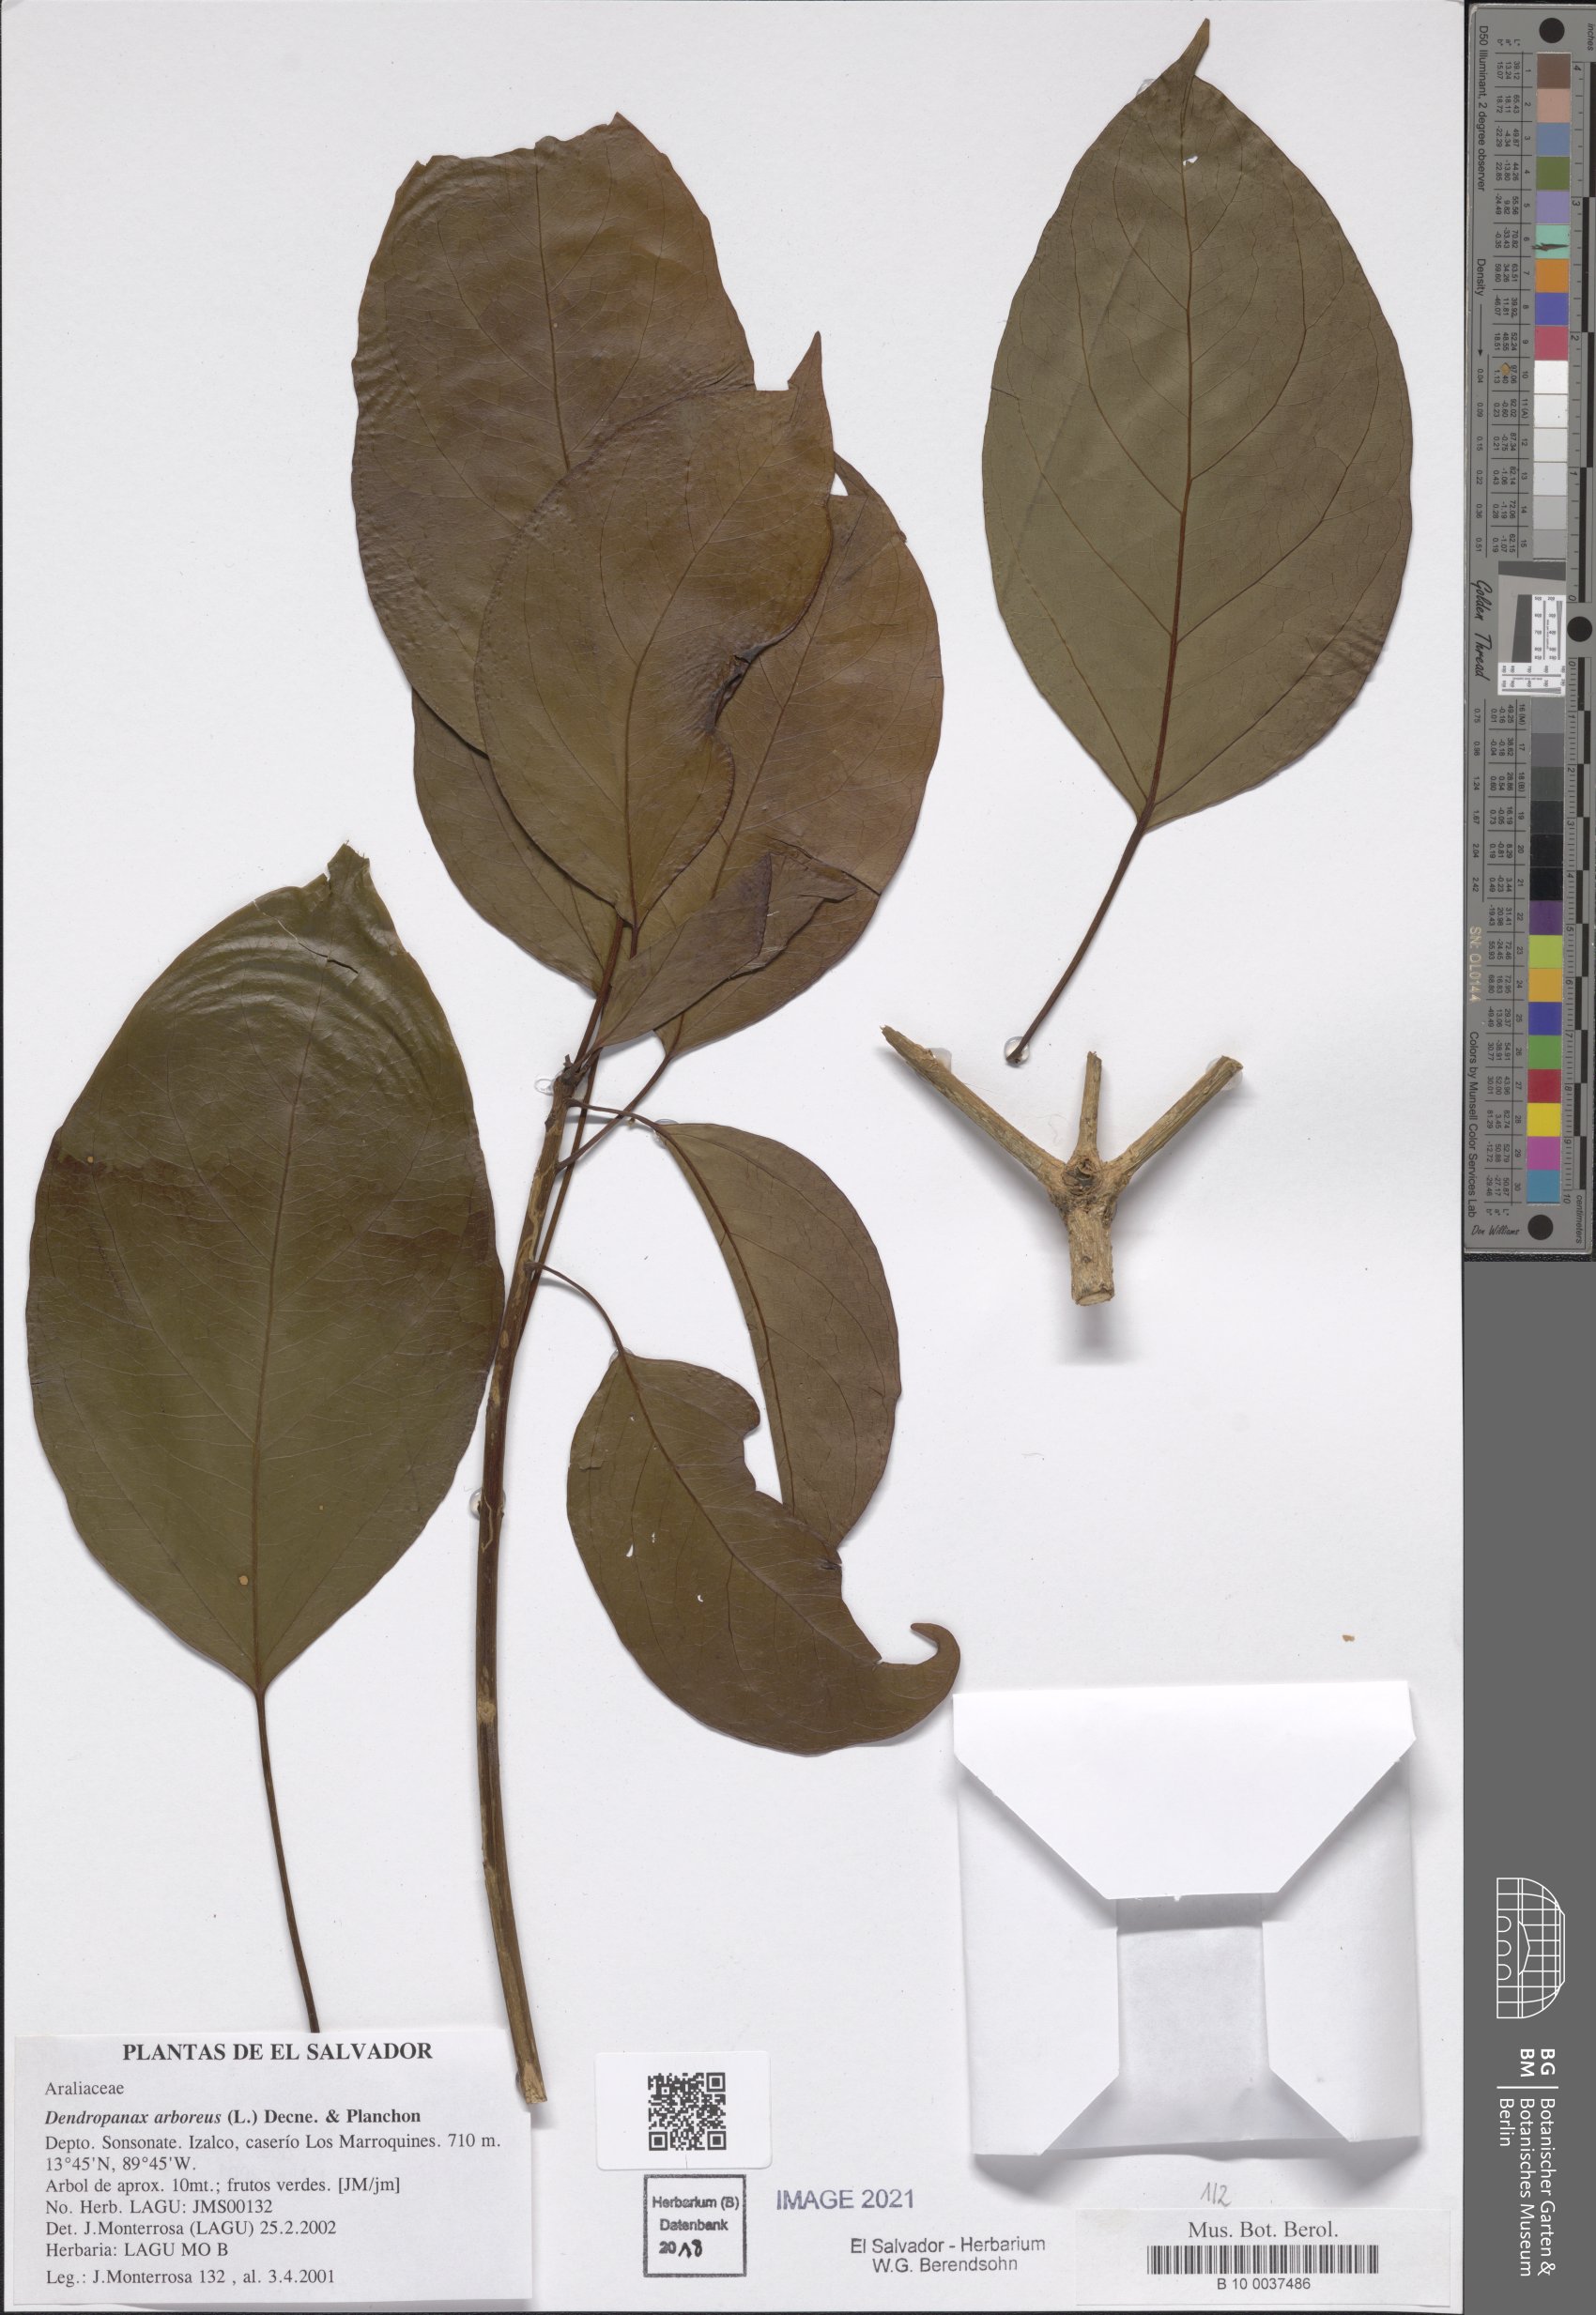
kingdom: Plantae
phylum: Tracheophyta
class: Magnoliopsida
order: Apiales
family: Araliaceae
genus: Dendropanax
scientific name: Dendropanax arboreus
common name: Potato-wood
